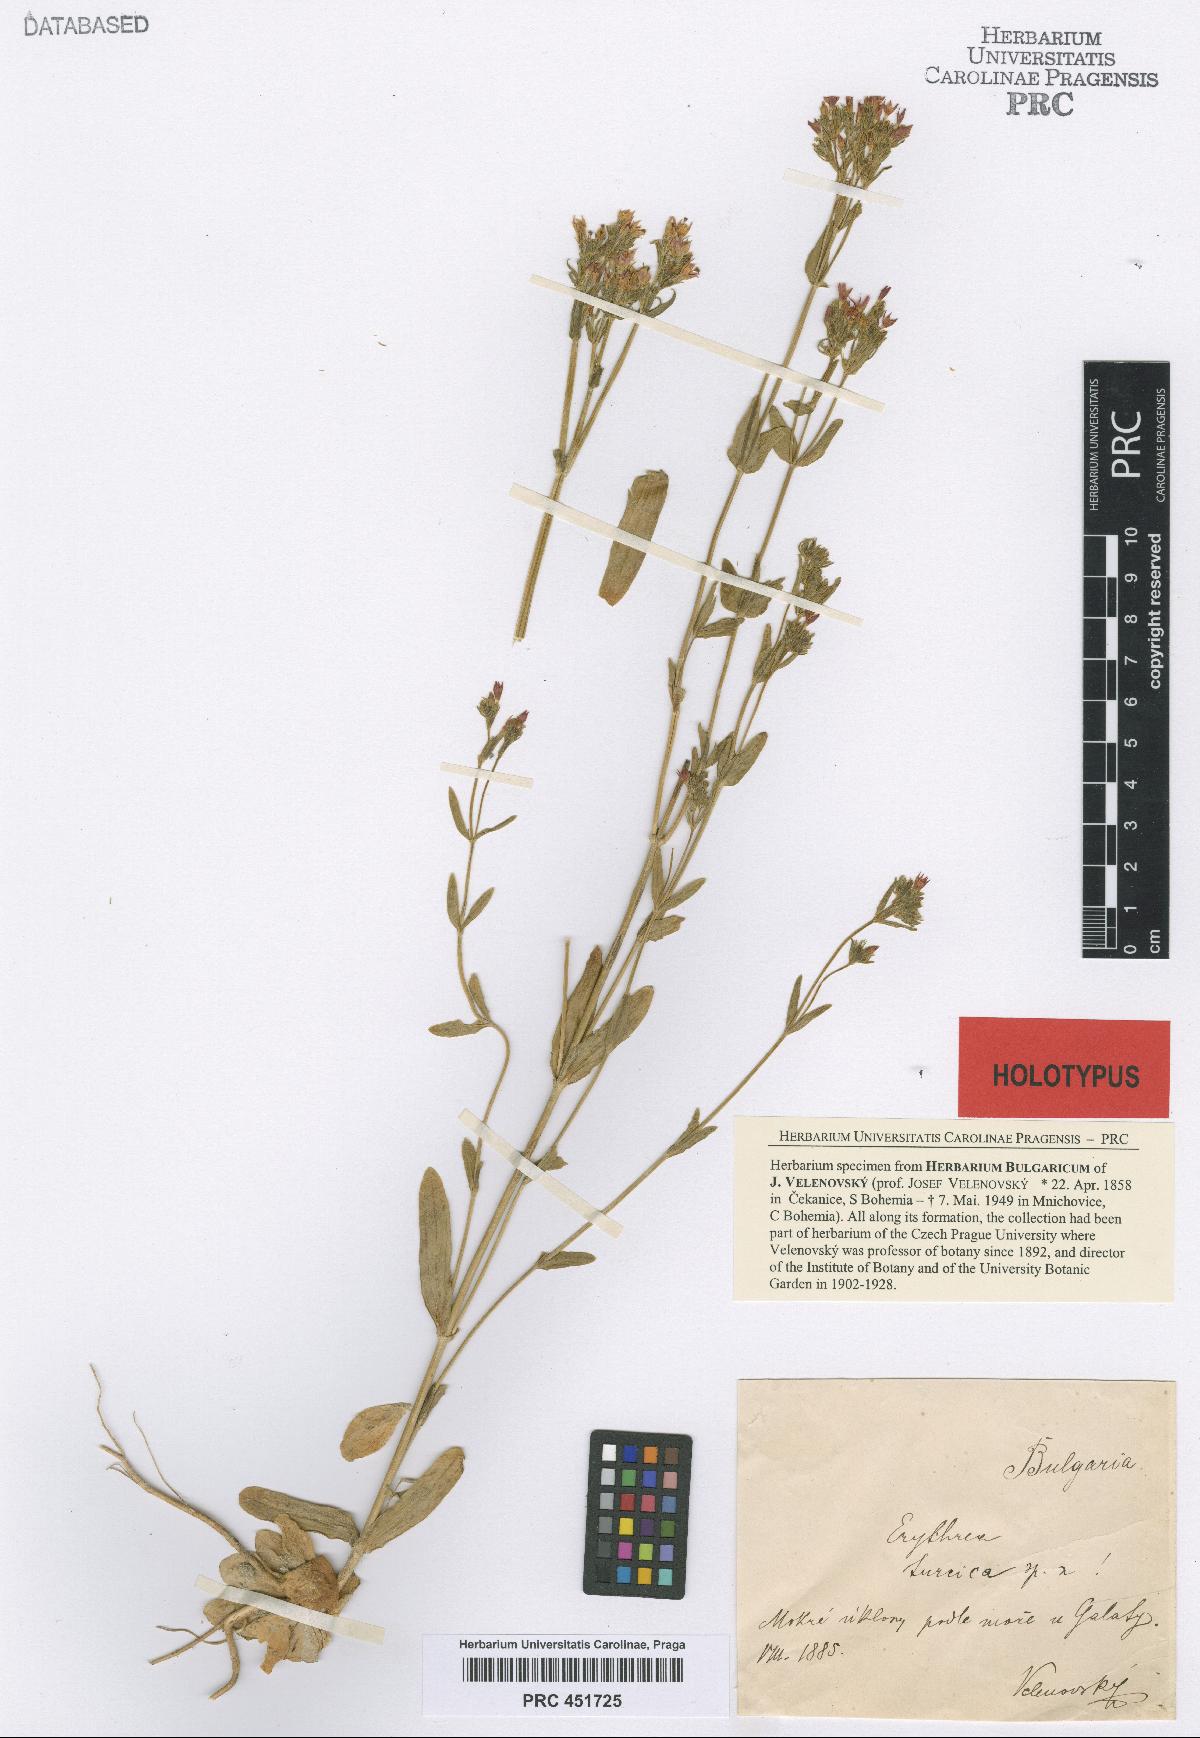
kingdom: Plantae
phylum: Tracheophyta
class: Magnoliopsida
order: Gentianales
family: Gentianaceae
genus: Centaurium
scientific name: Centaurium pulchellum
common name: Lesser centaury
